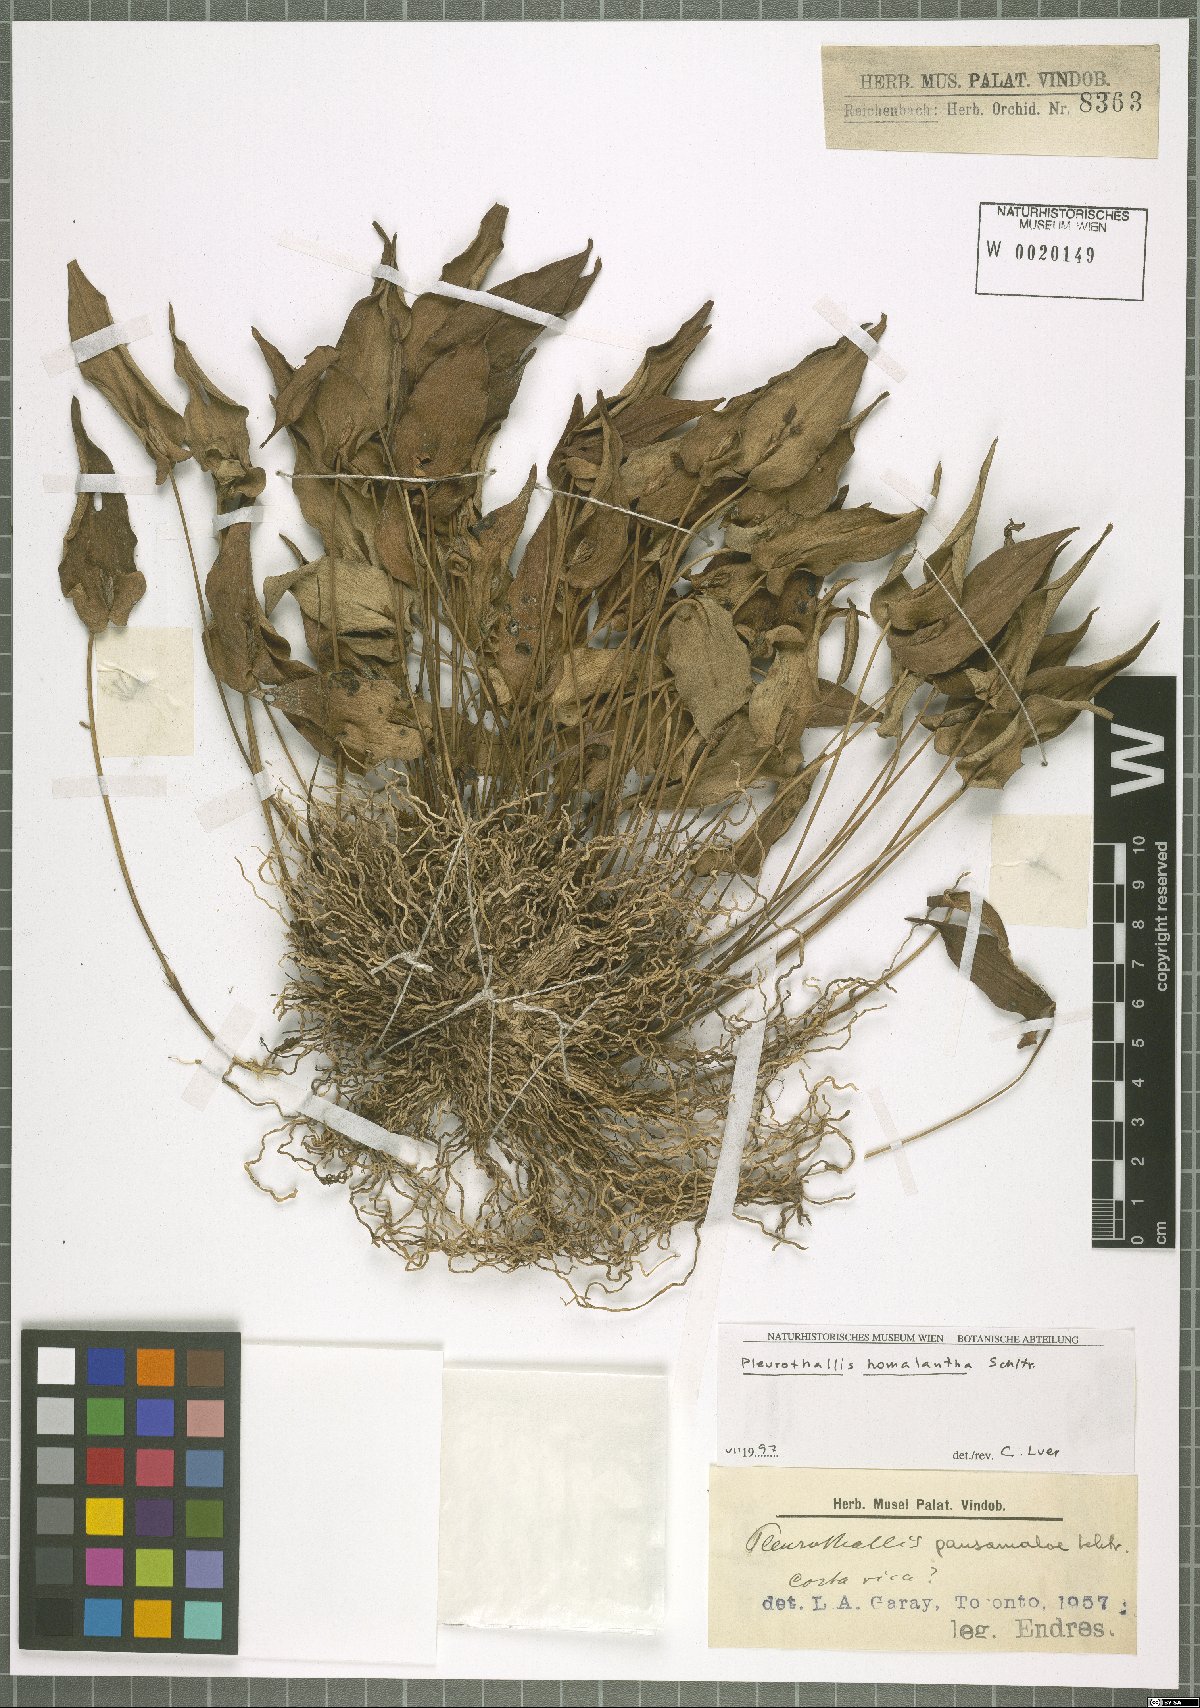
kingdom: Plantae
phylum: Tracheophyta
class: Liliopsida
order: Asparagales
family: Orchidaceae
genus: Pleurothallis
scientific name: Pleurothallis homalantha
